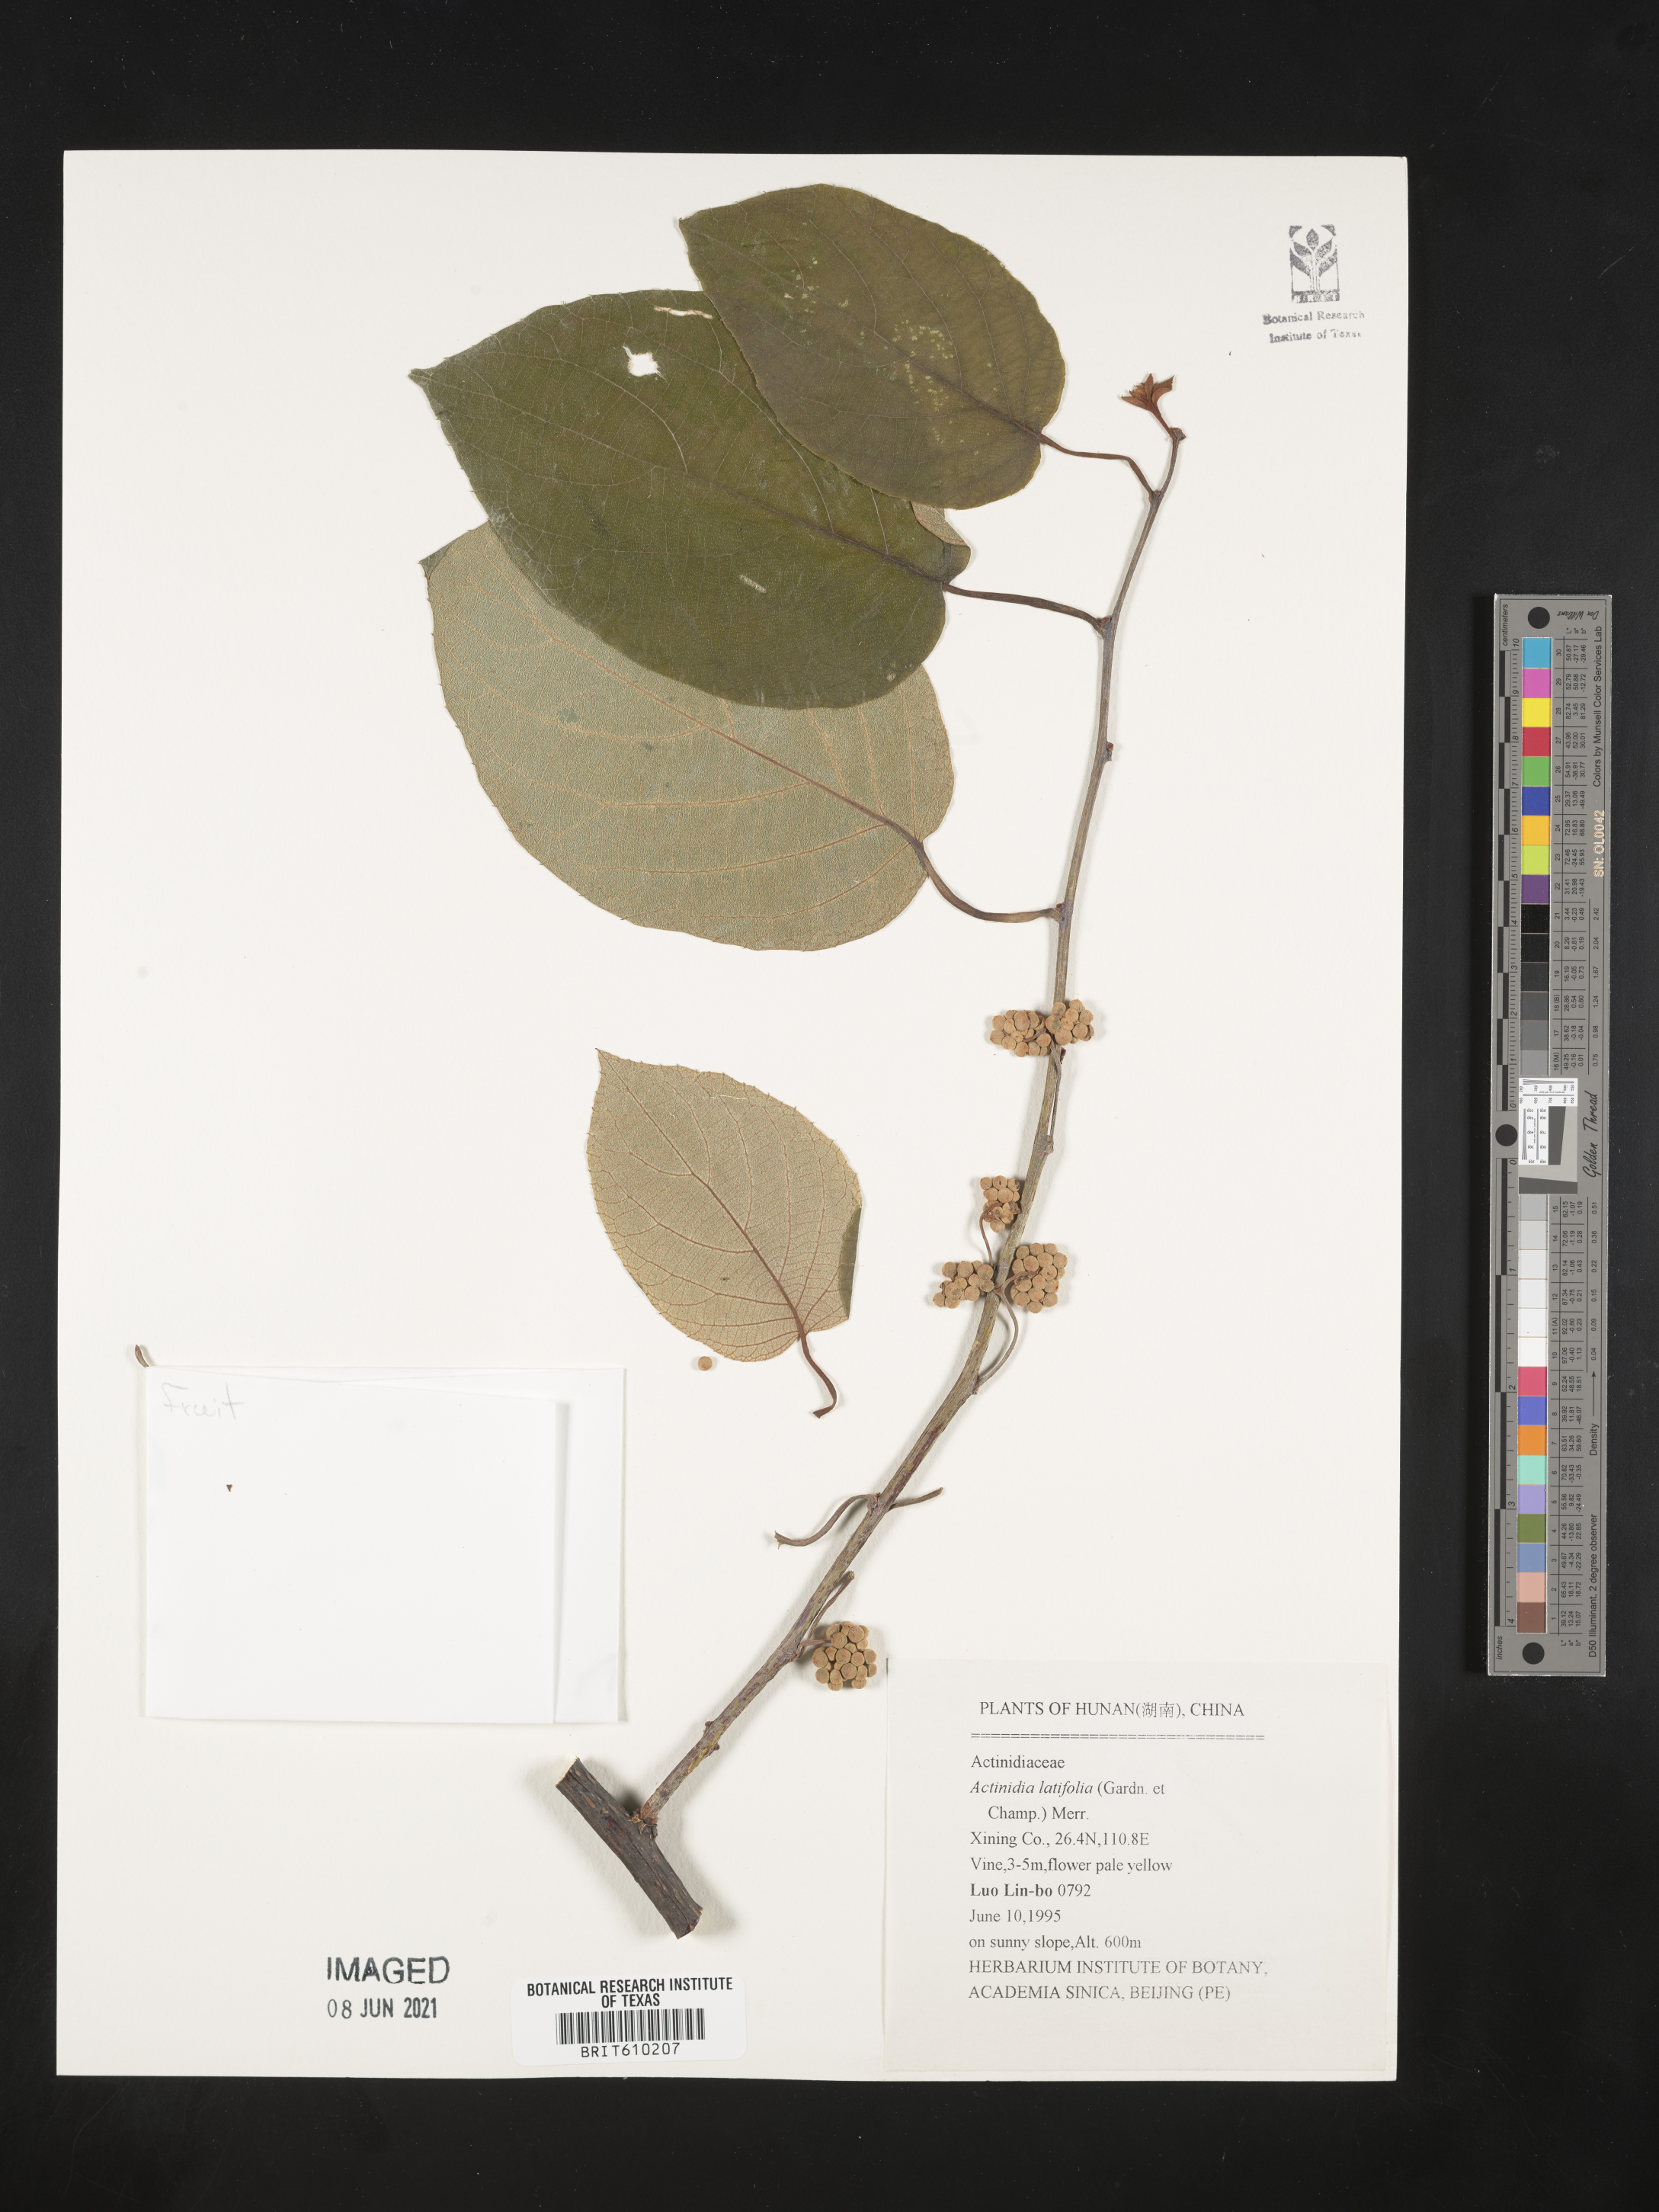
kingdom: Plantae
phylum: Tracheophyta
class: Magnoliopsida
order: Ericales
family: Actinidiaceae
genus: Actinidia
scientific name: Actinidia latifolia
